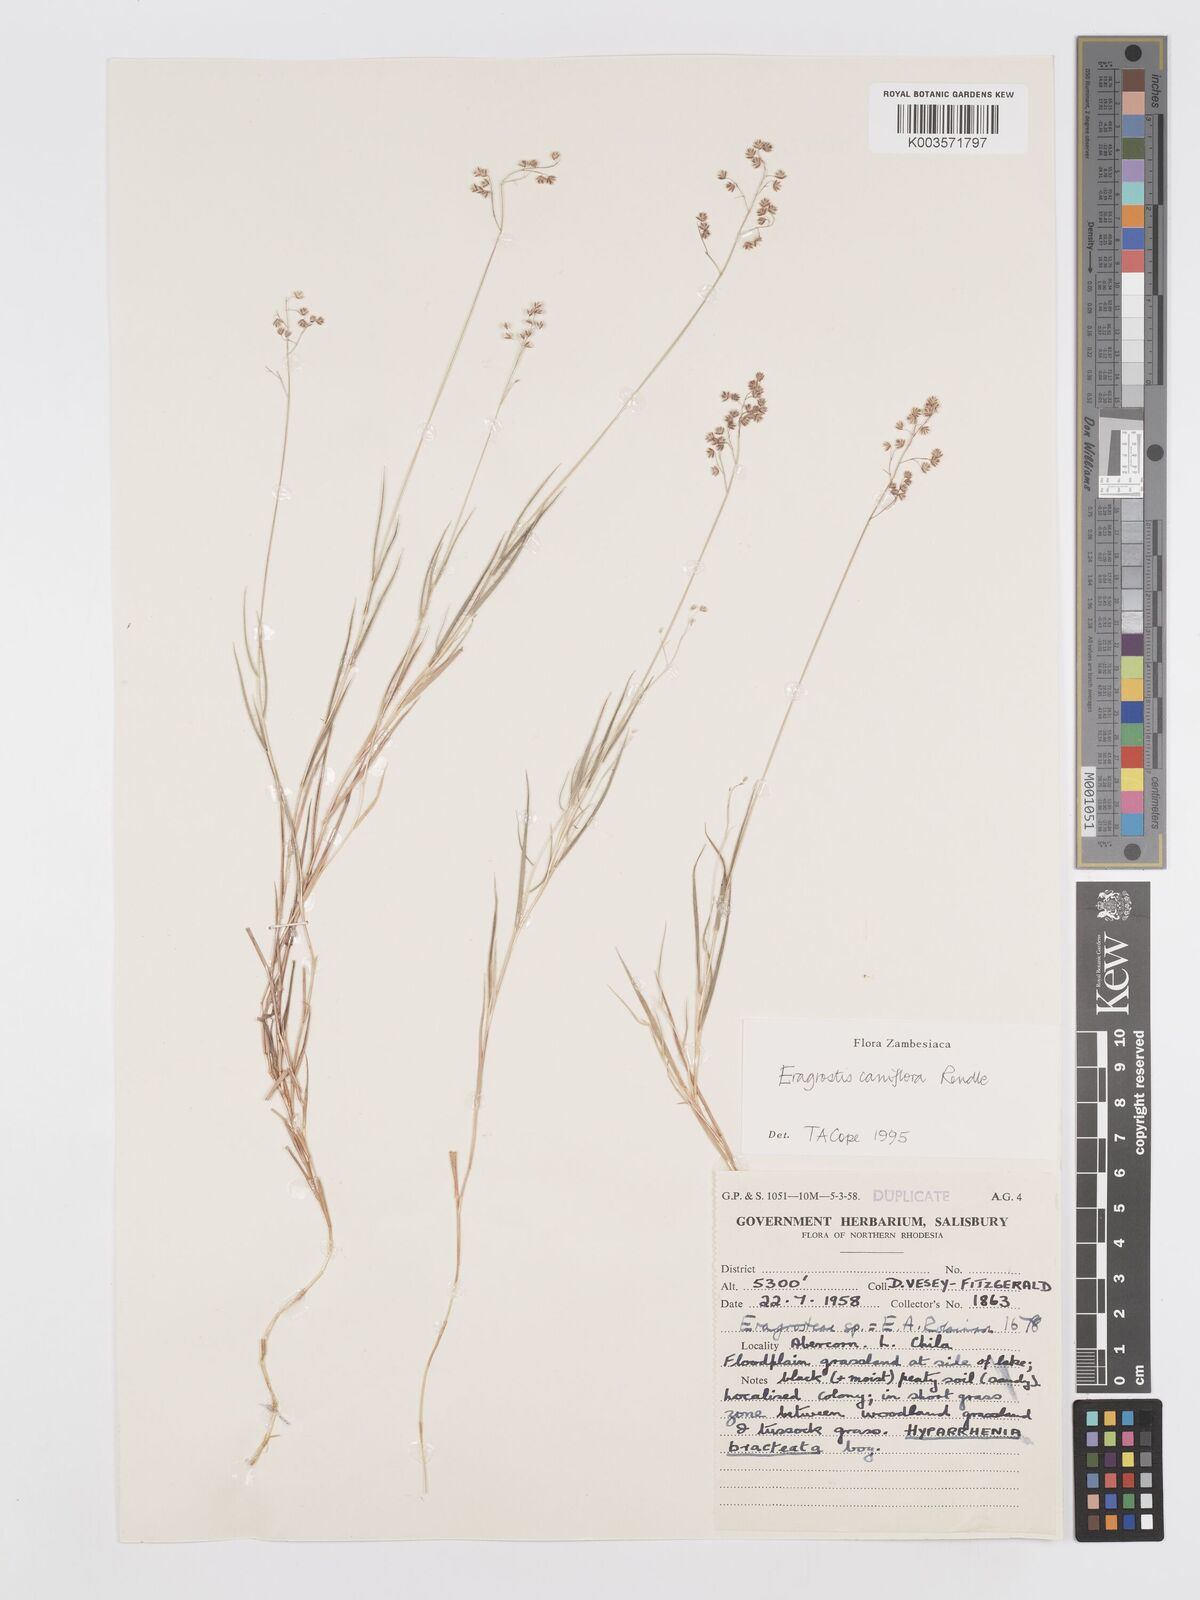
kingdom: Plantae
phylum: Tracheophyta
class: Liliopsida
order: Poales
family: Poaceae
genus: Eragrostis
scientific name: Eragrostis caniflora
